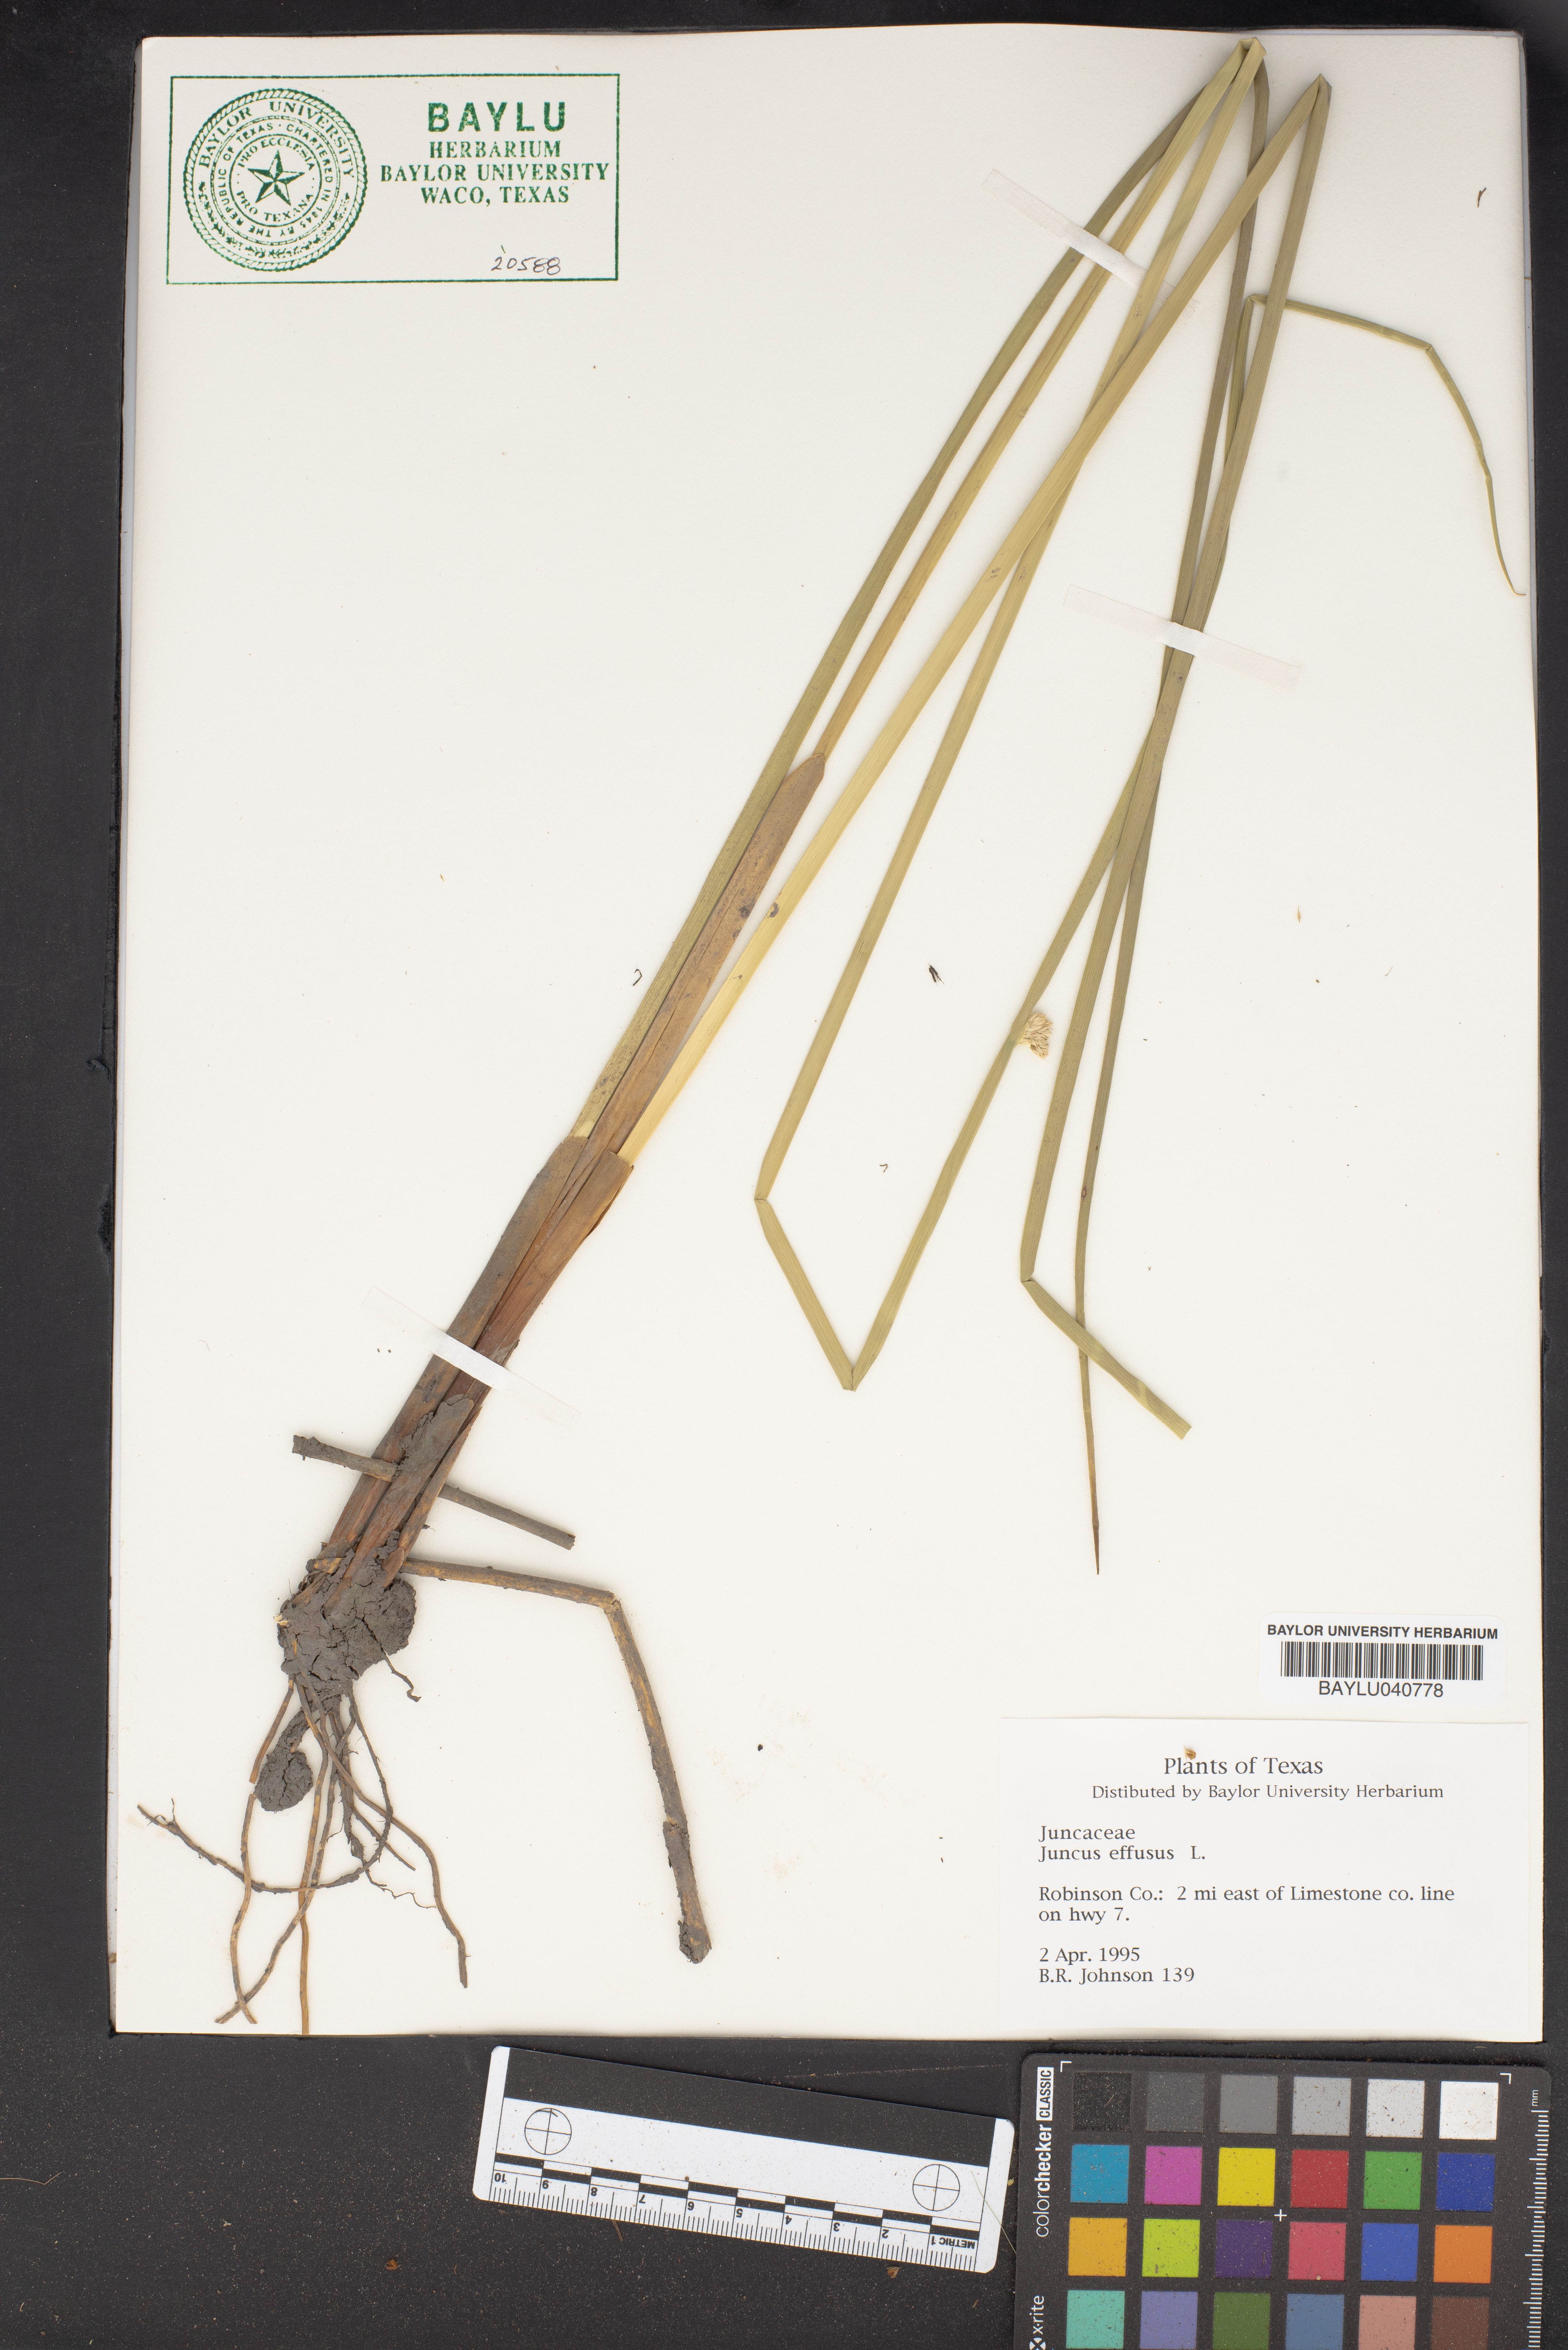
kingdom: Plantae
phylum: Tracheophyta
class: Liliopsida
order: Poales
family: Juncaceae
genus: Juncus
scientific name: Juncus effusus
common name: Soft rush
